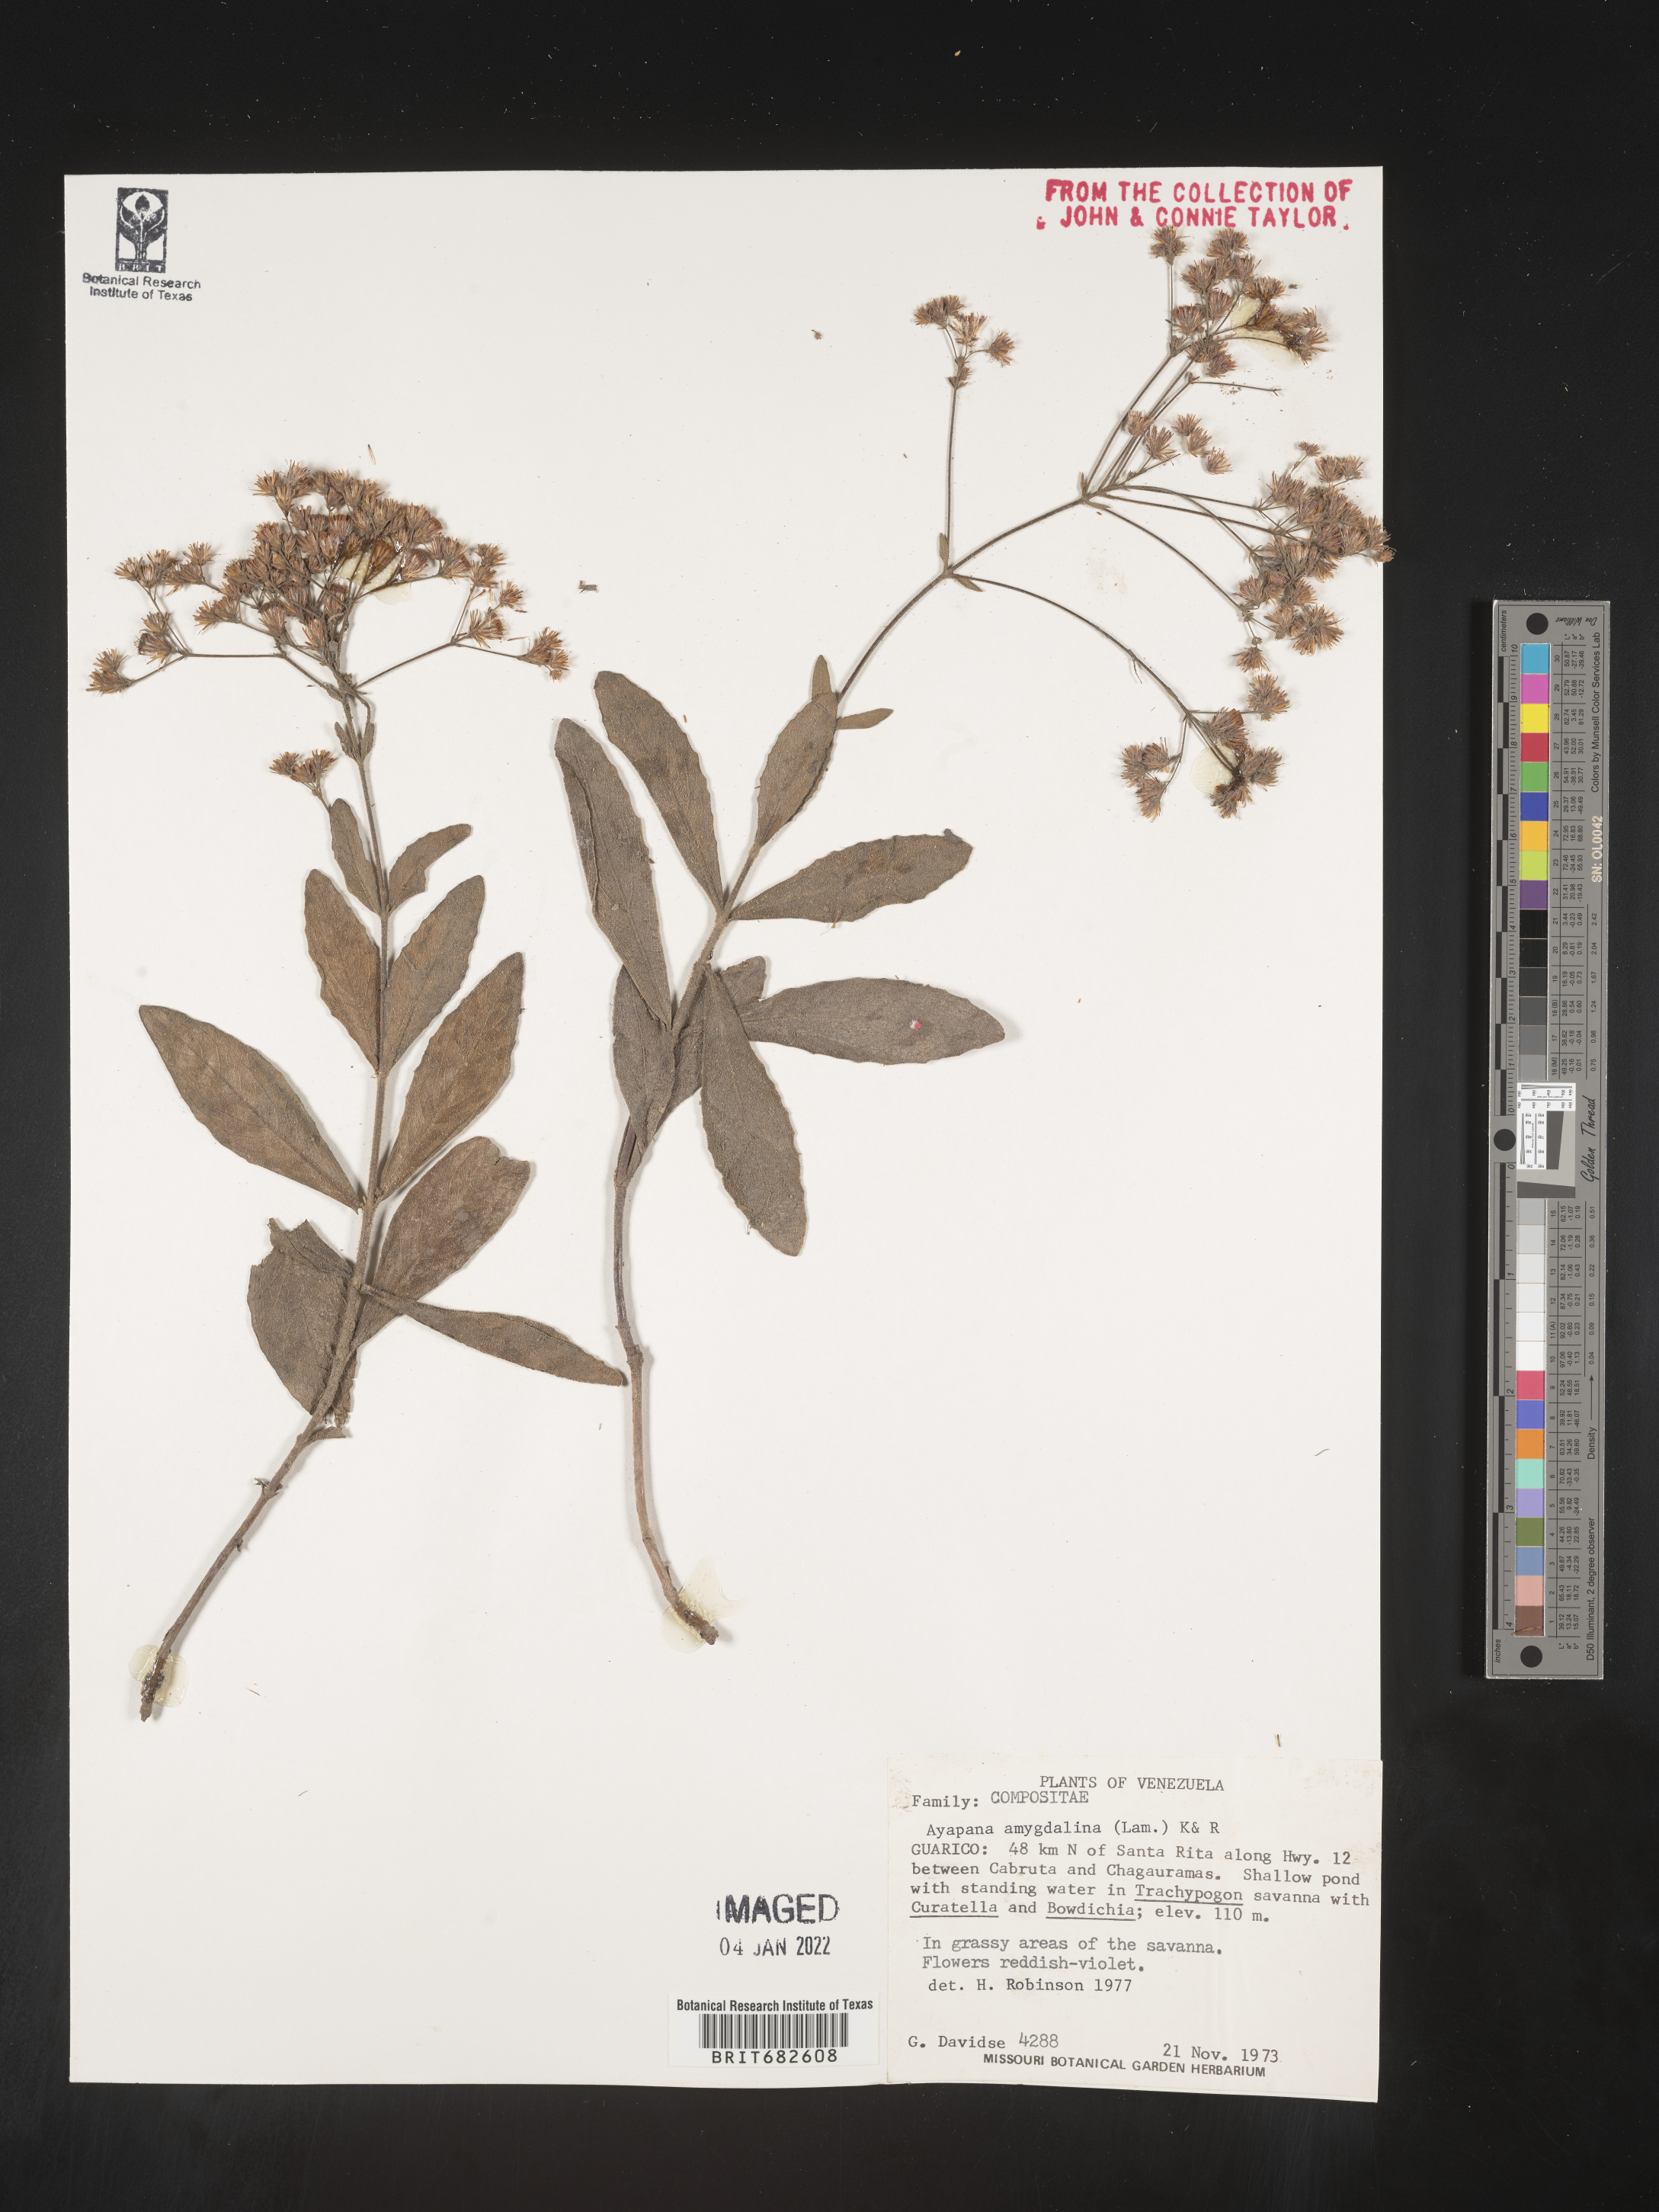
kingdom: Plantae
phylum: Tracheophyta
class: Magnoliopsida
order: Asterales
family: Asteraceae
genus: Ayapana
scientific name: Ayapana
